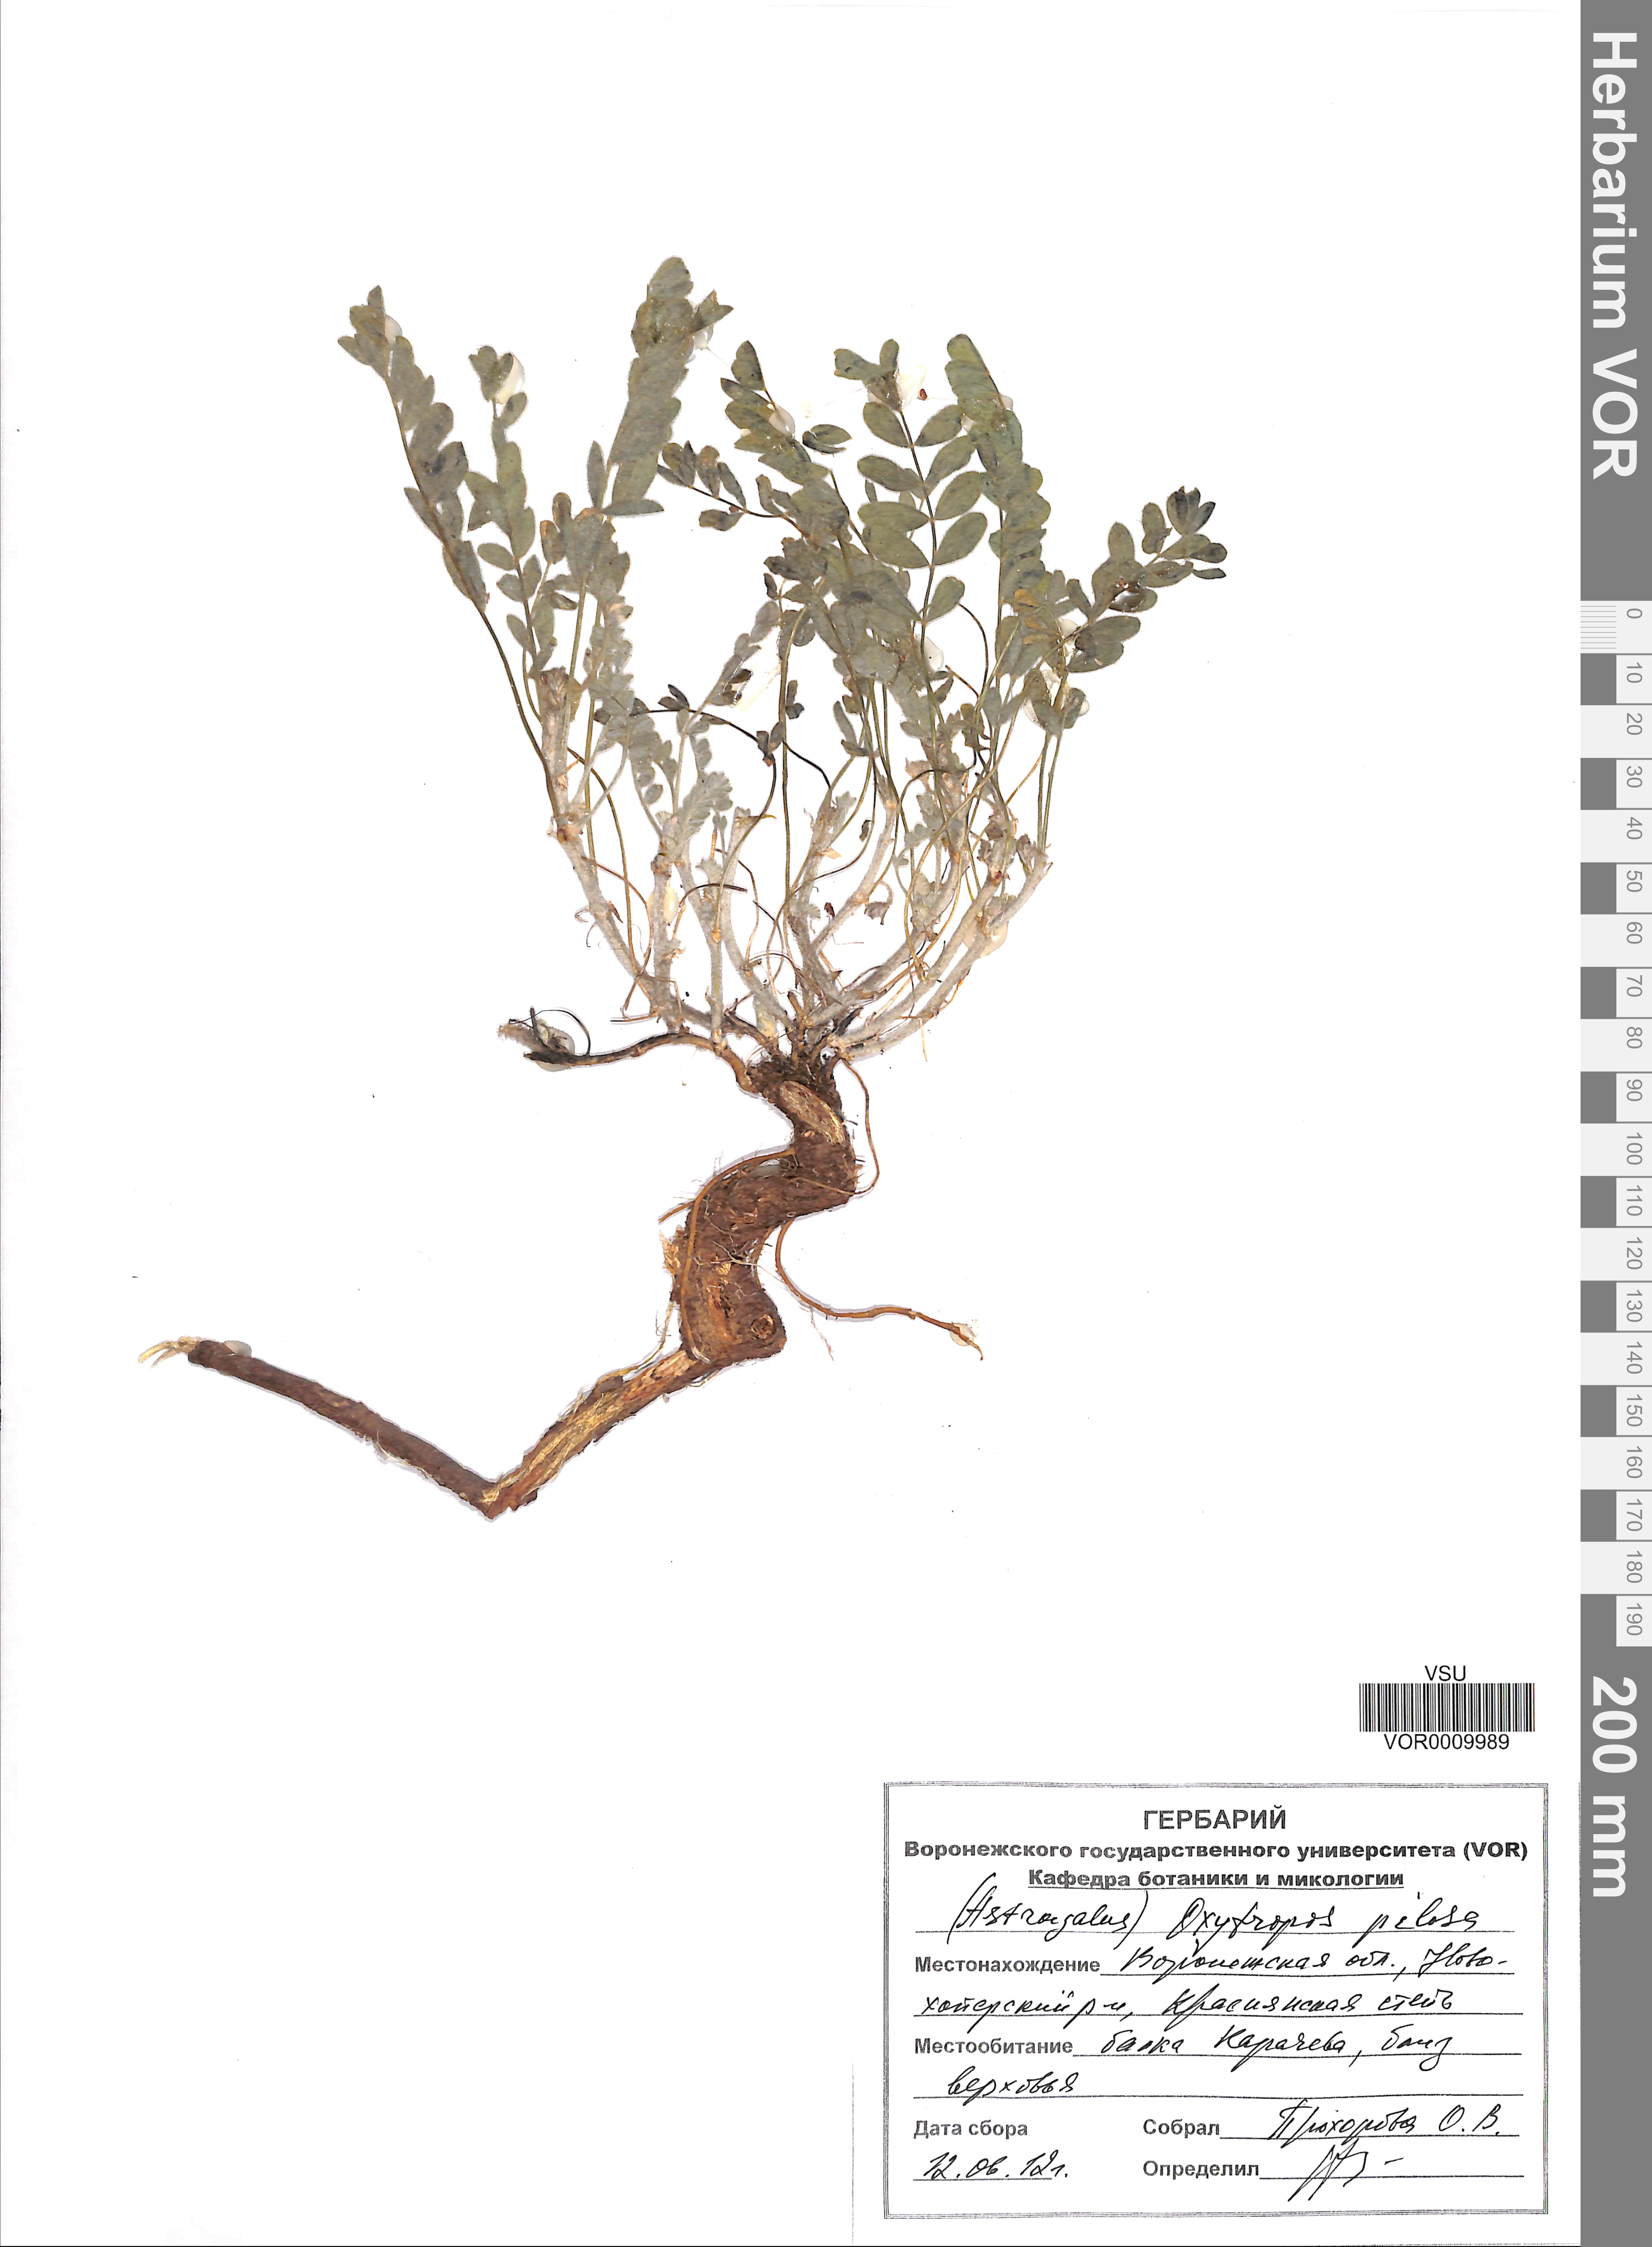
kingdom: Plantae
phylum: Tracheophyta
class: Magnoliopsida
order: Fabales
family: Fabaceae
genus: Oxytropis
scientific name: Oxytropis pilosa
